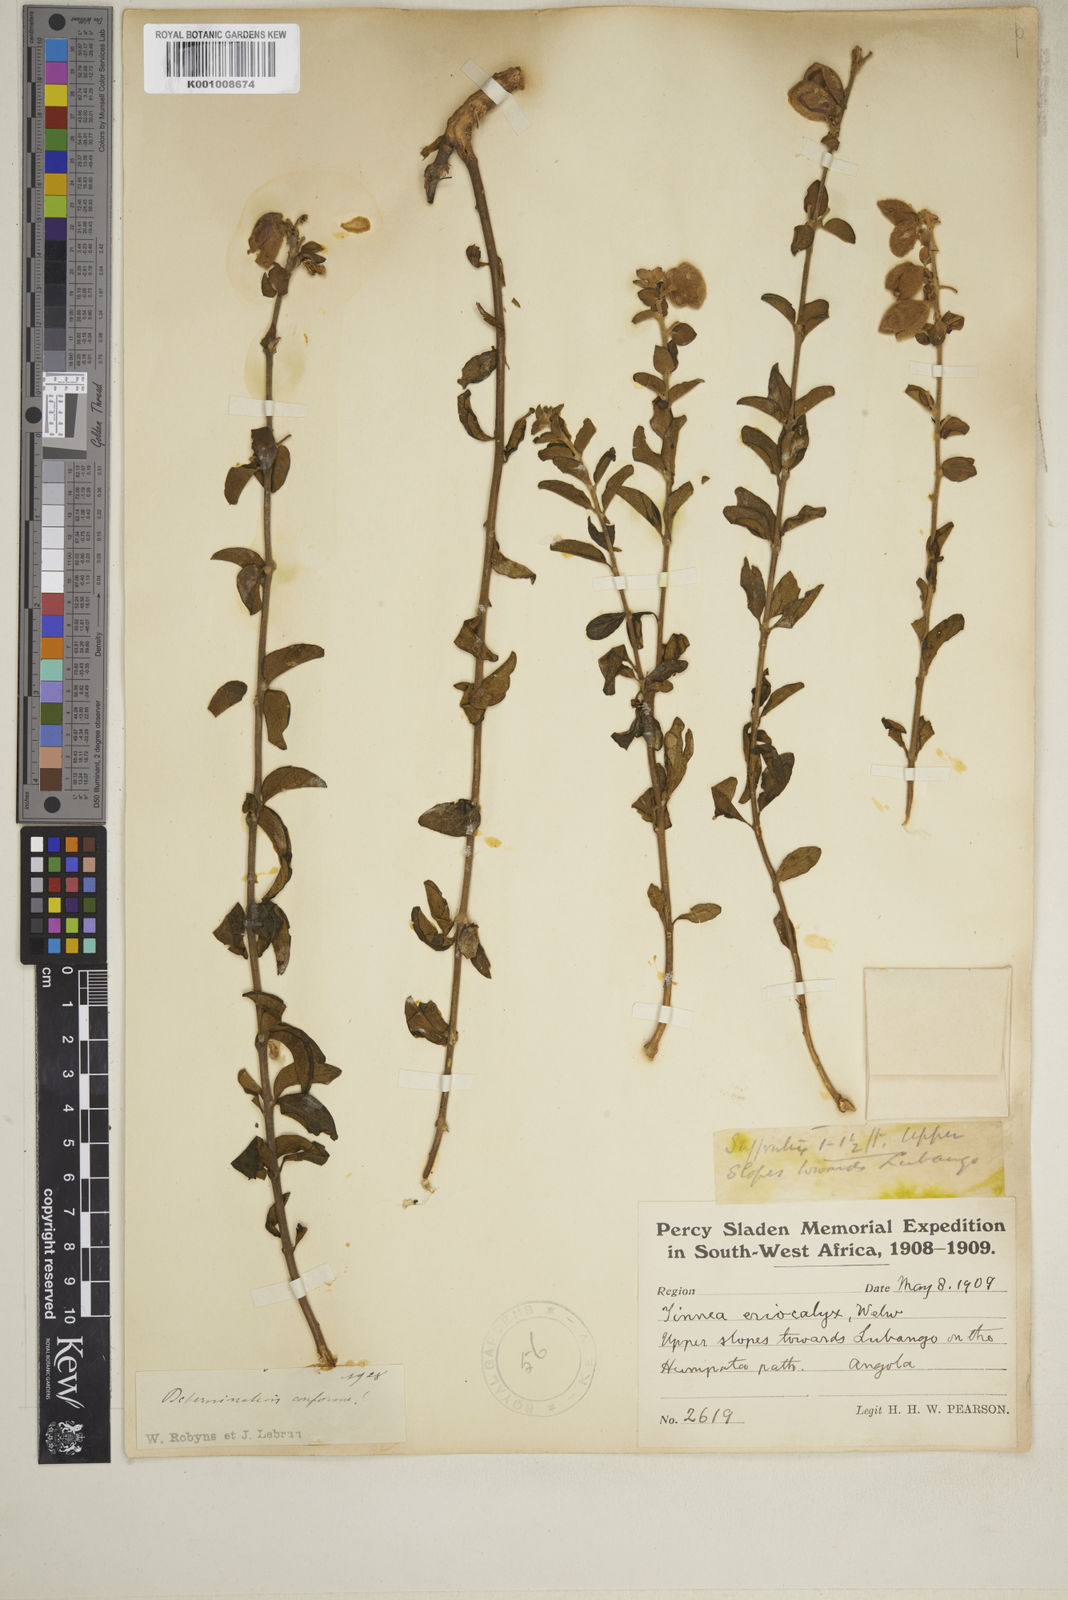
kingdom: Plantae
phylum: Tracheophyta
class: Magnoliopsida
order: Lamiales
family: Lamiaceae
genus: Tinnea
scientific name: Tinnea eriocalyx
